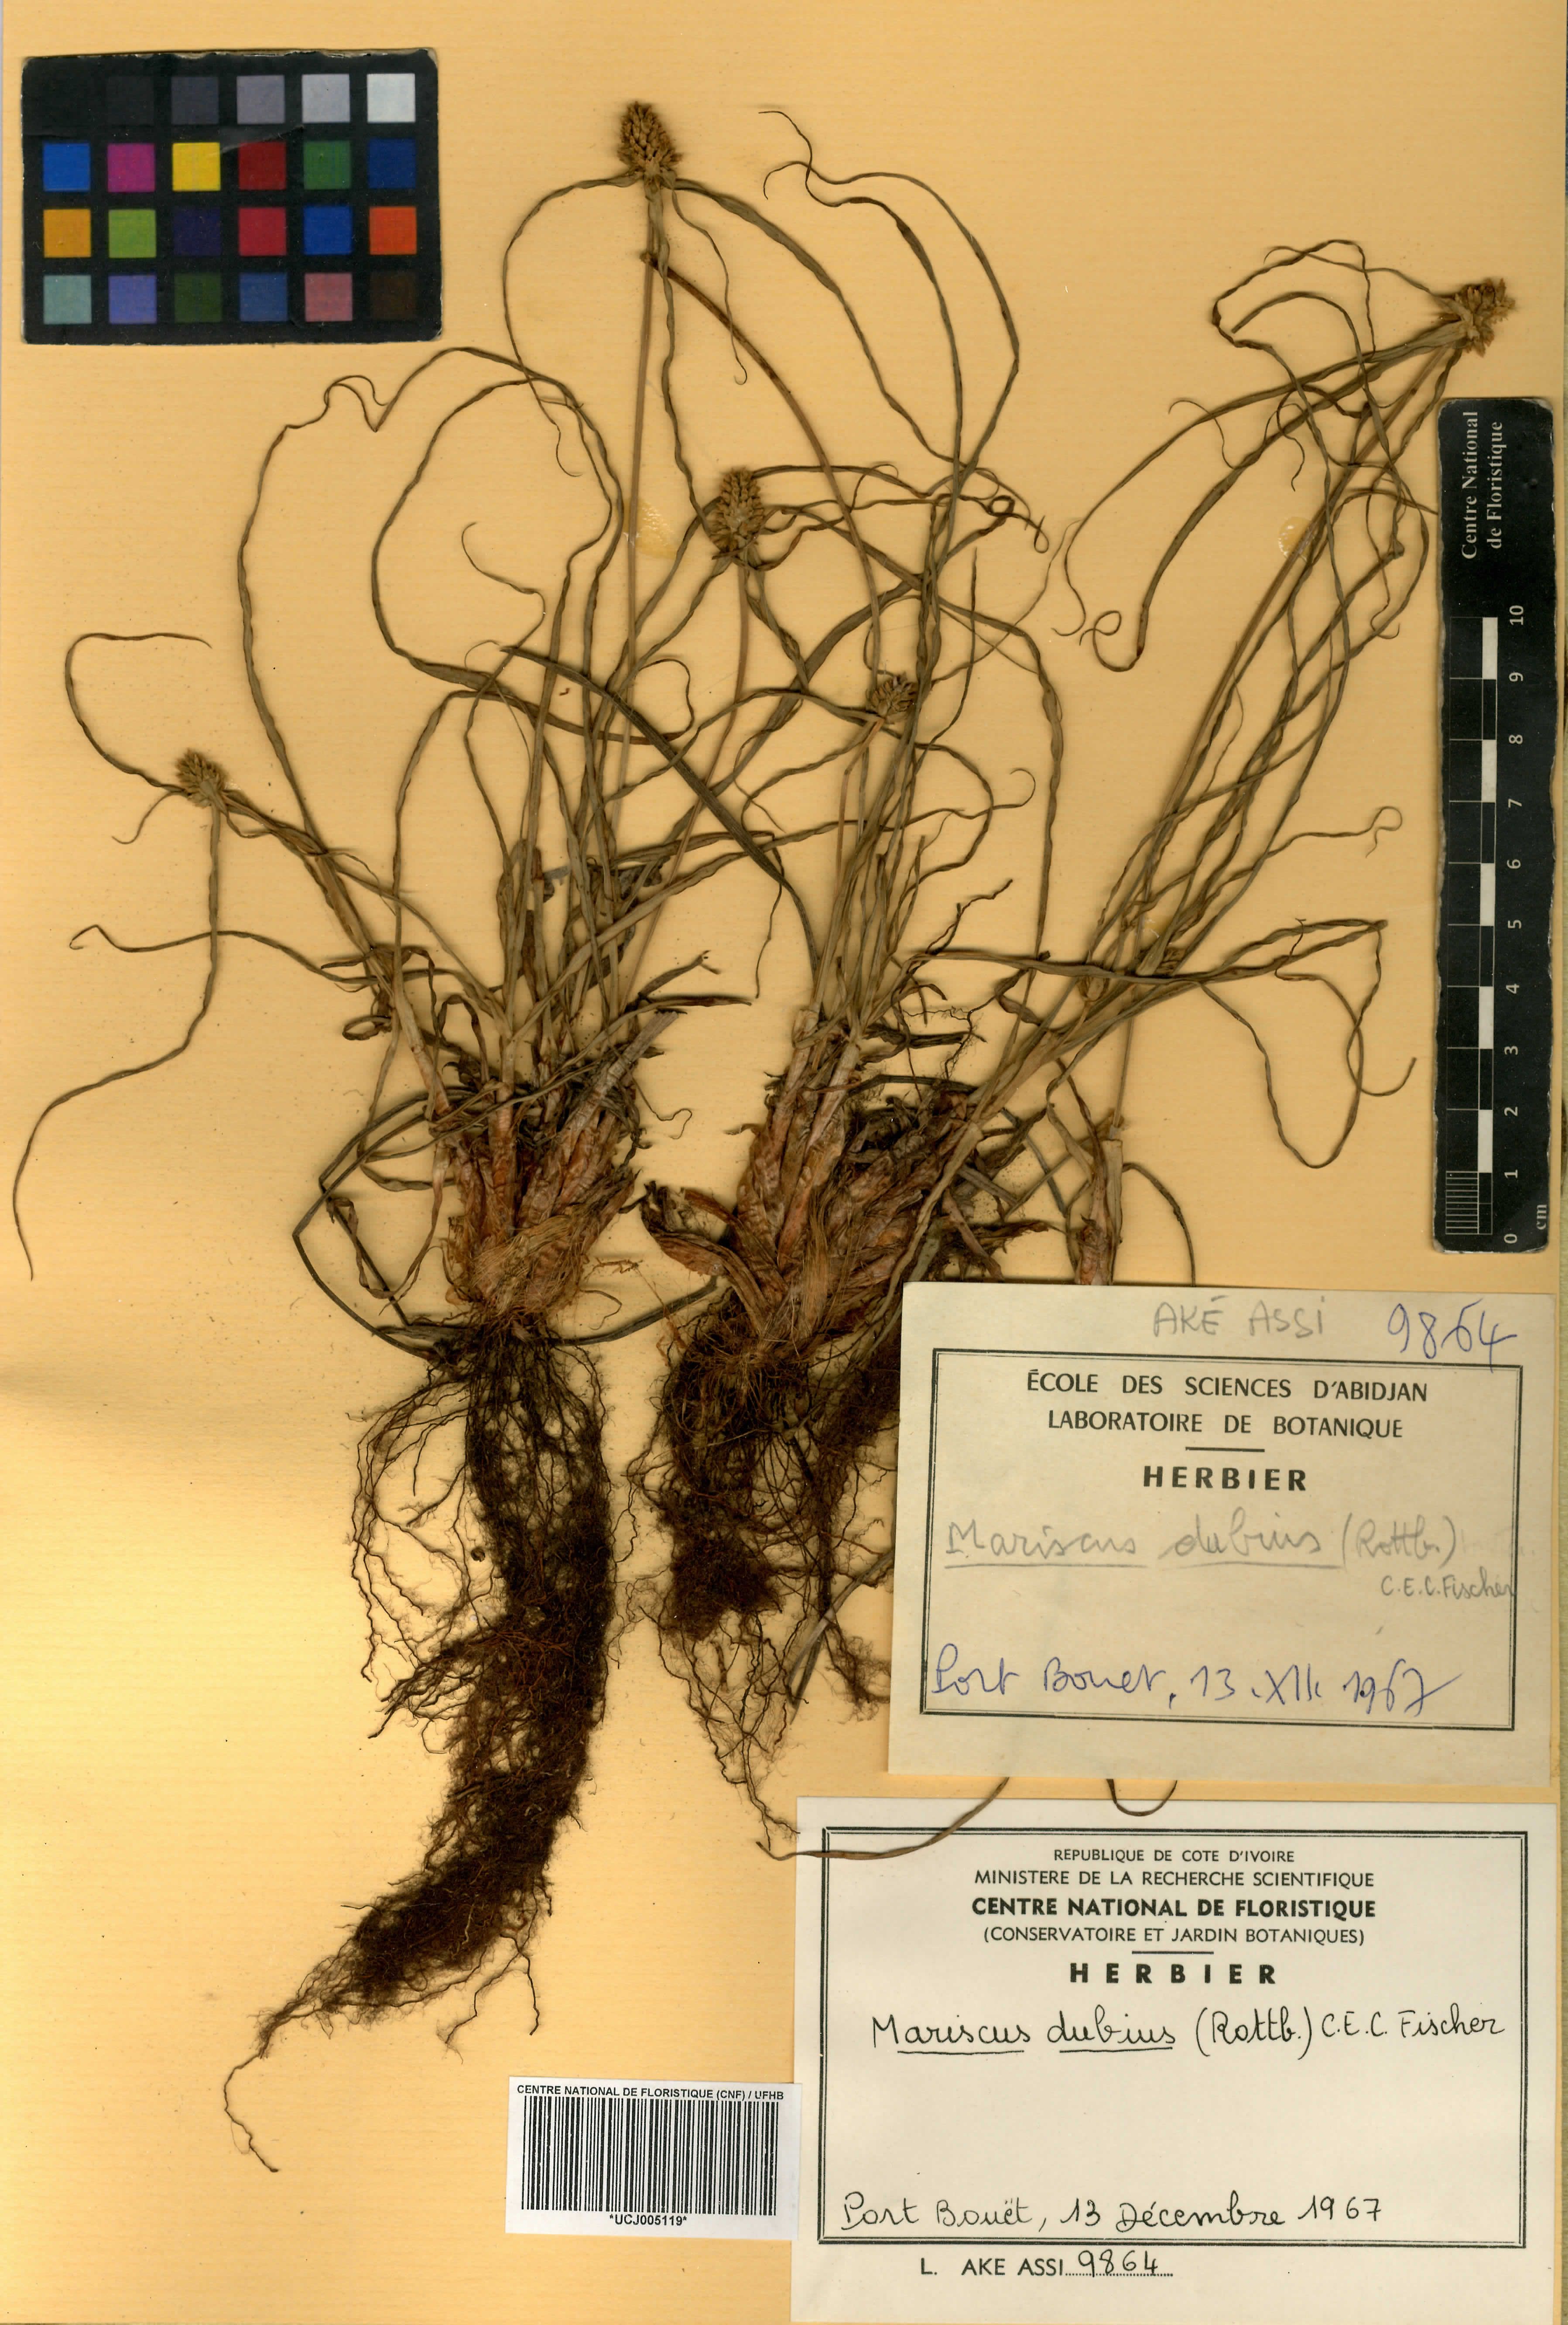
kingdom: Plantae
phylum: Tracheophyta
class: Liliopsida
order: Poales
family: Cyperaceae
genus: Cyperus
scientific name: Cyperus dubius
